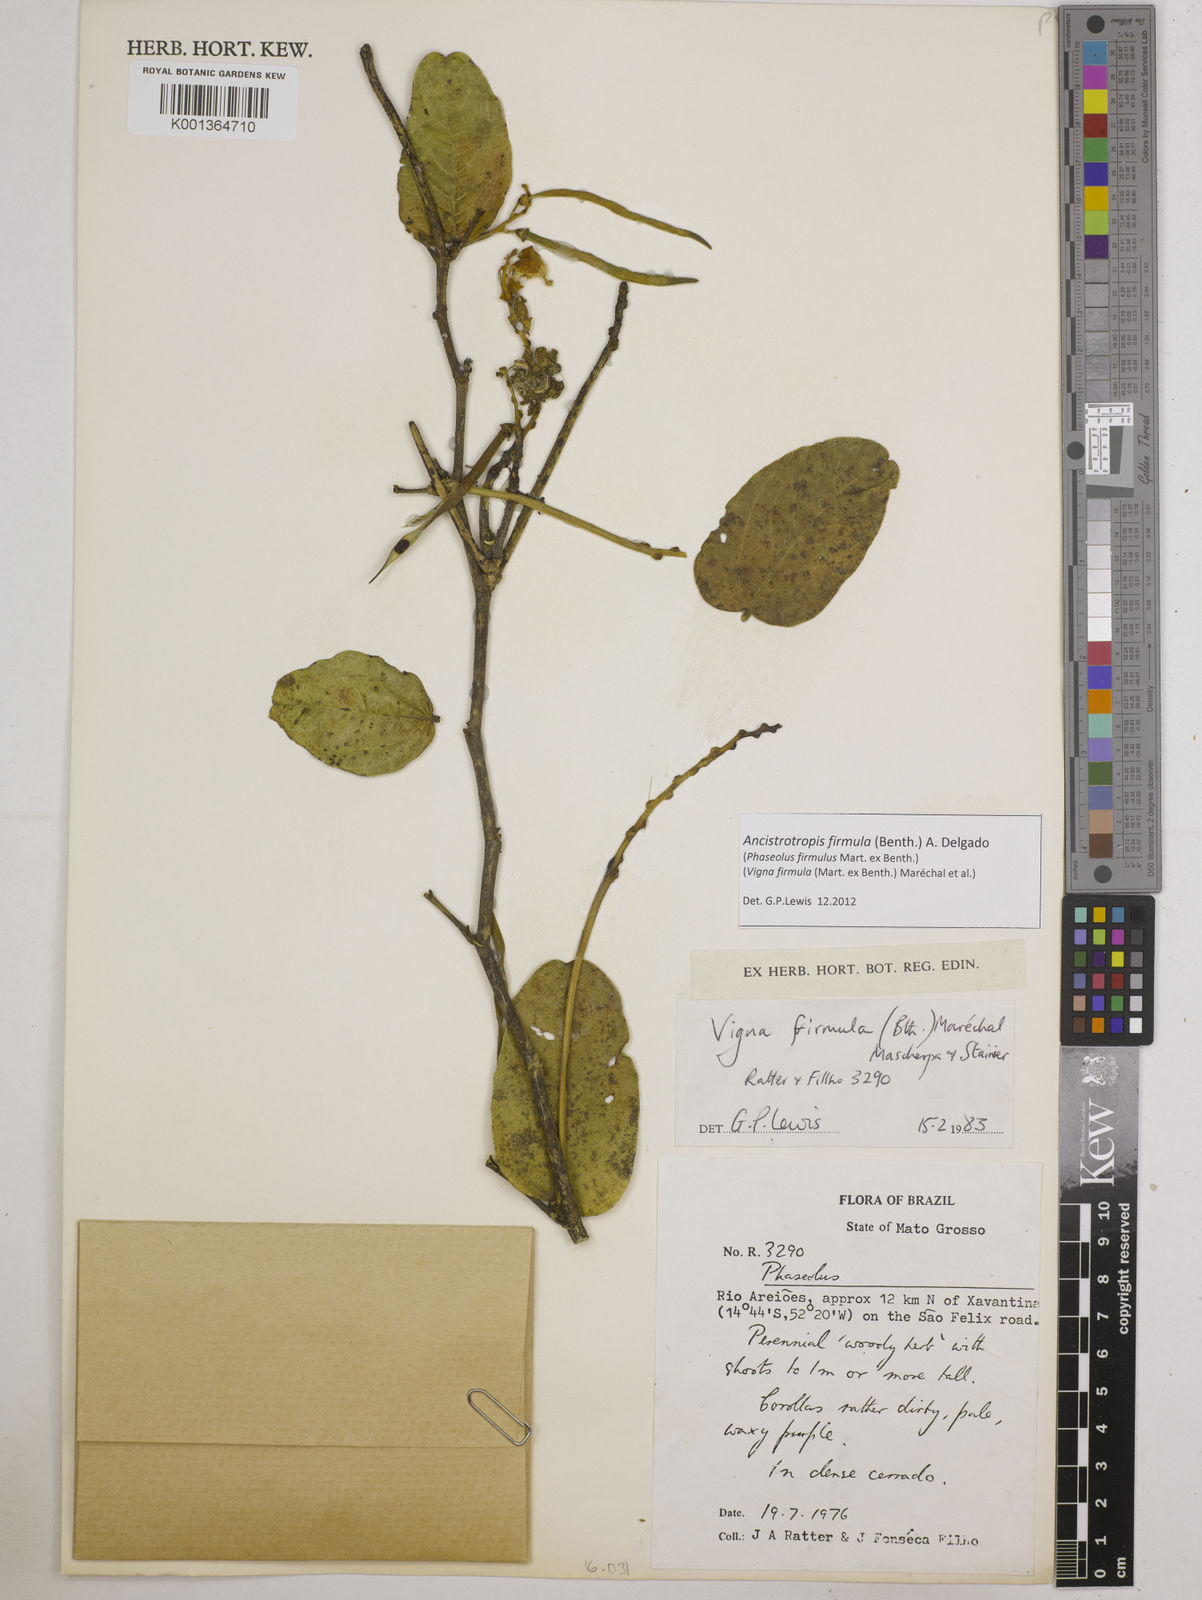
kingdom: Plantae
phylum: Tracheophyta
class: Magnoliopsida
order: Fabales
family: Fabaceae
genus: Ancistrotropis
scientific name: Ancistrotropis firmula
